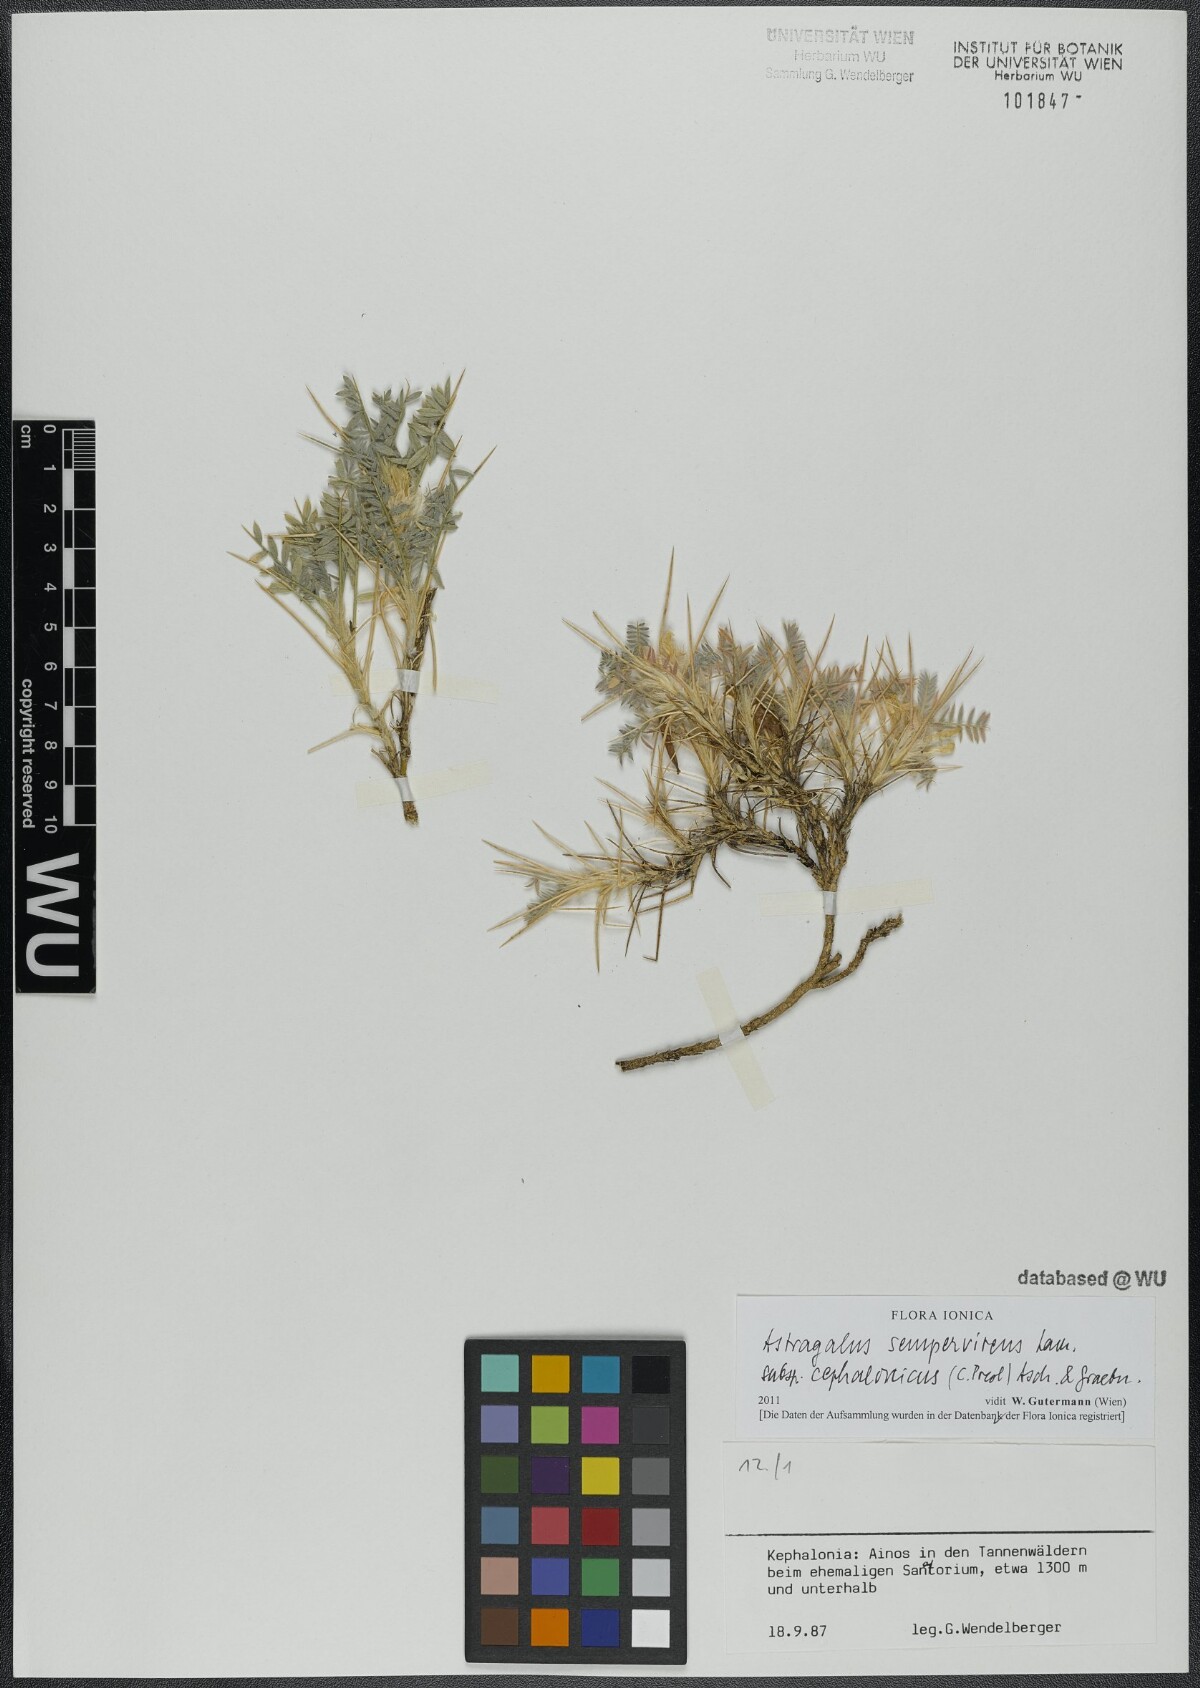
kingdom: Plantae
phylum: Tracheophyta
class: Magnoliopsida
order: Fabales
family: Fabaceae
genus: Astragalus
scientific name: Astragalus sempervirens
